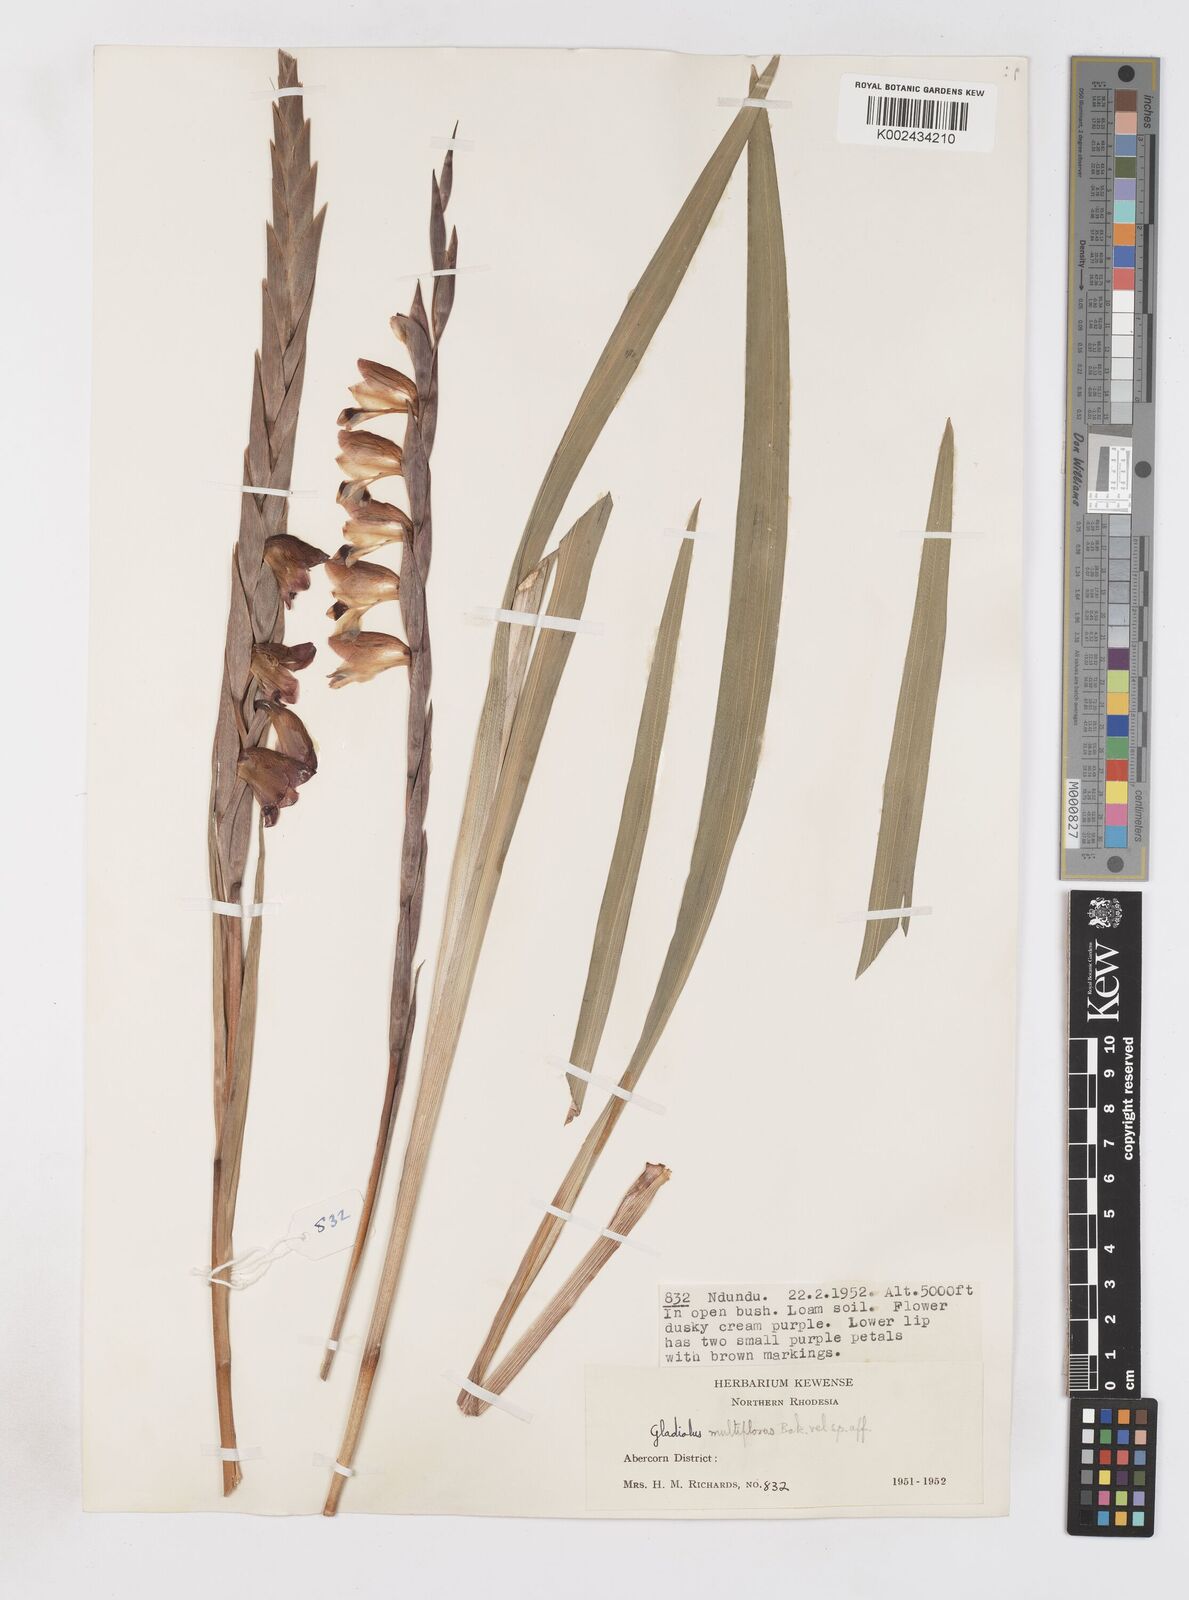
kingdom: Plantae
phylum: Tracheophyta
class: Liliopsida
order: Asparagales
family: Iridaceae
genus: Gladiolus
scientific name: Gladiolus gregarius
